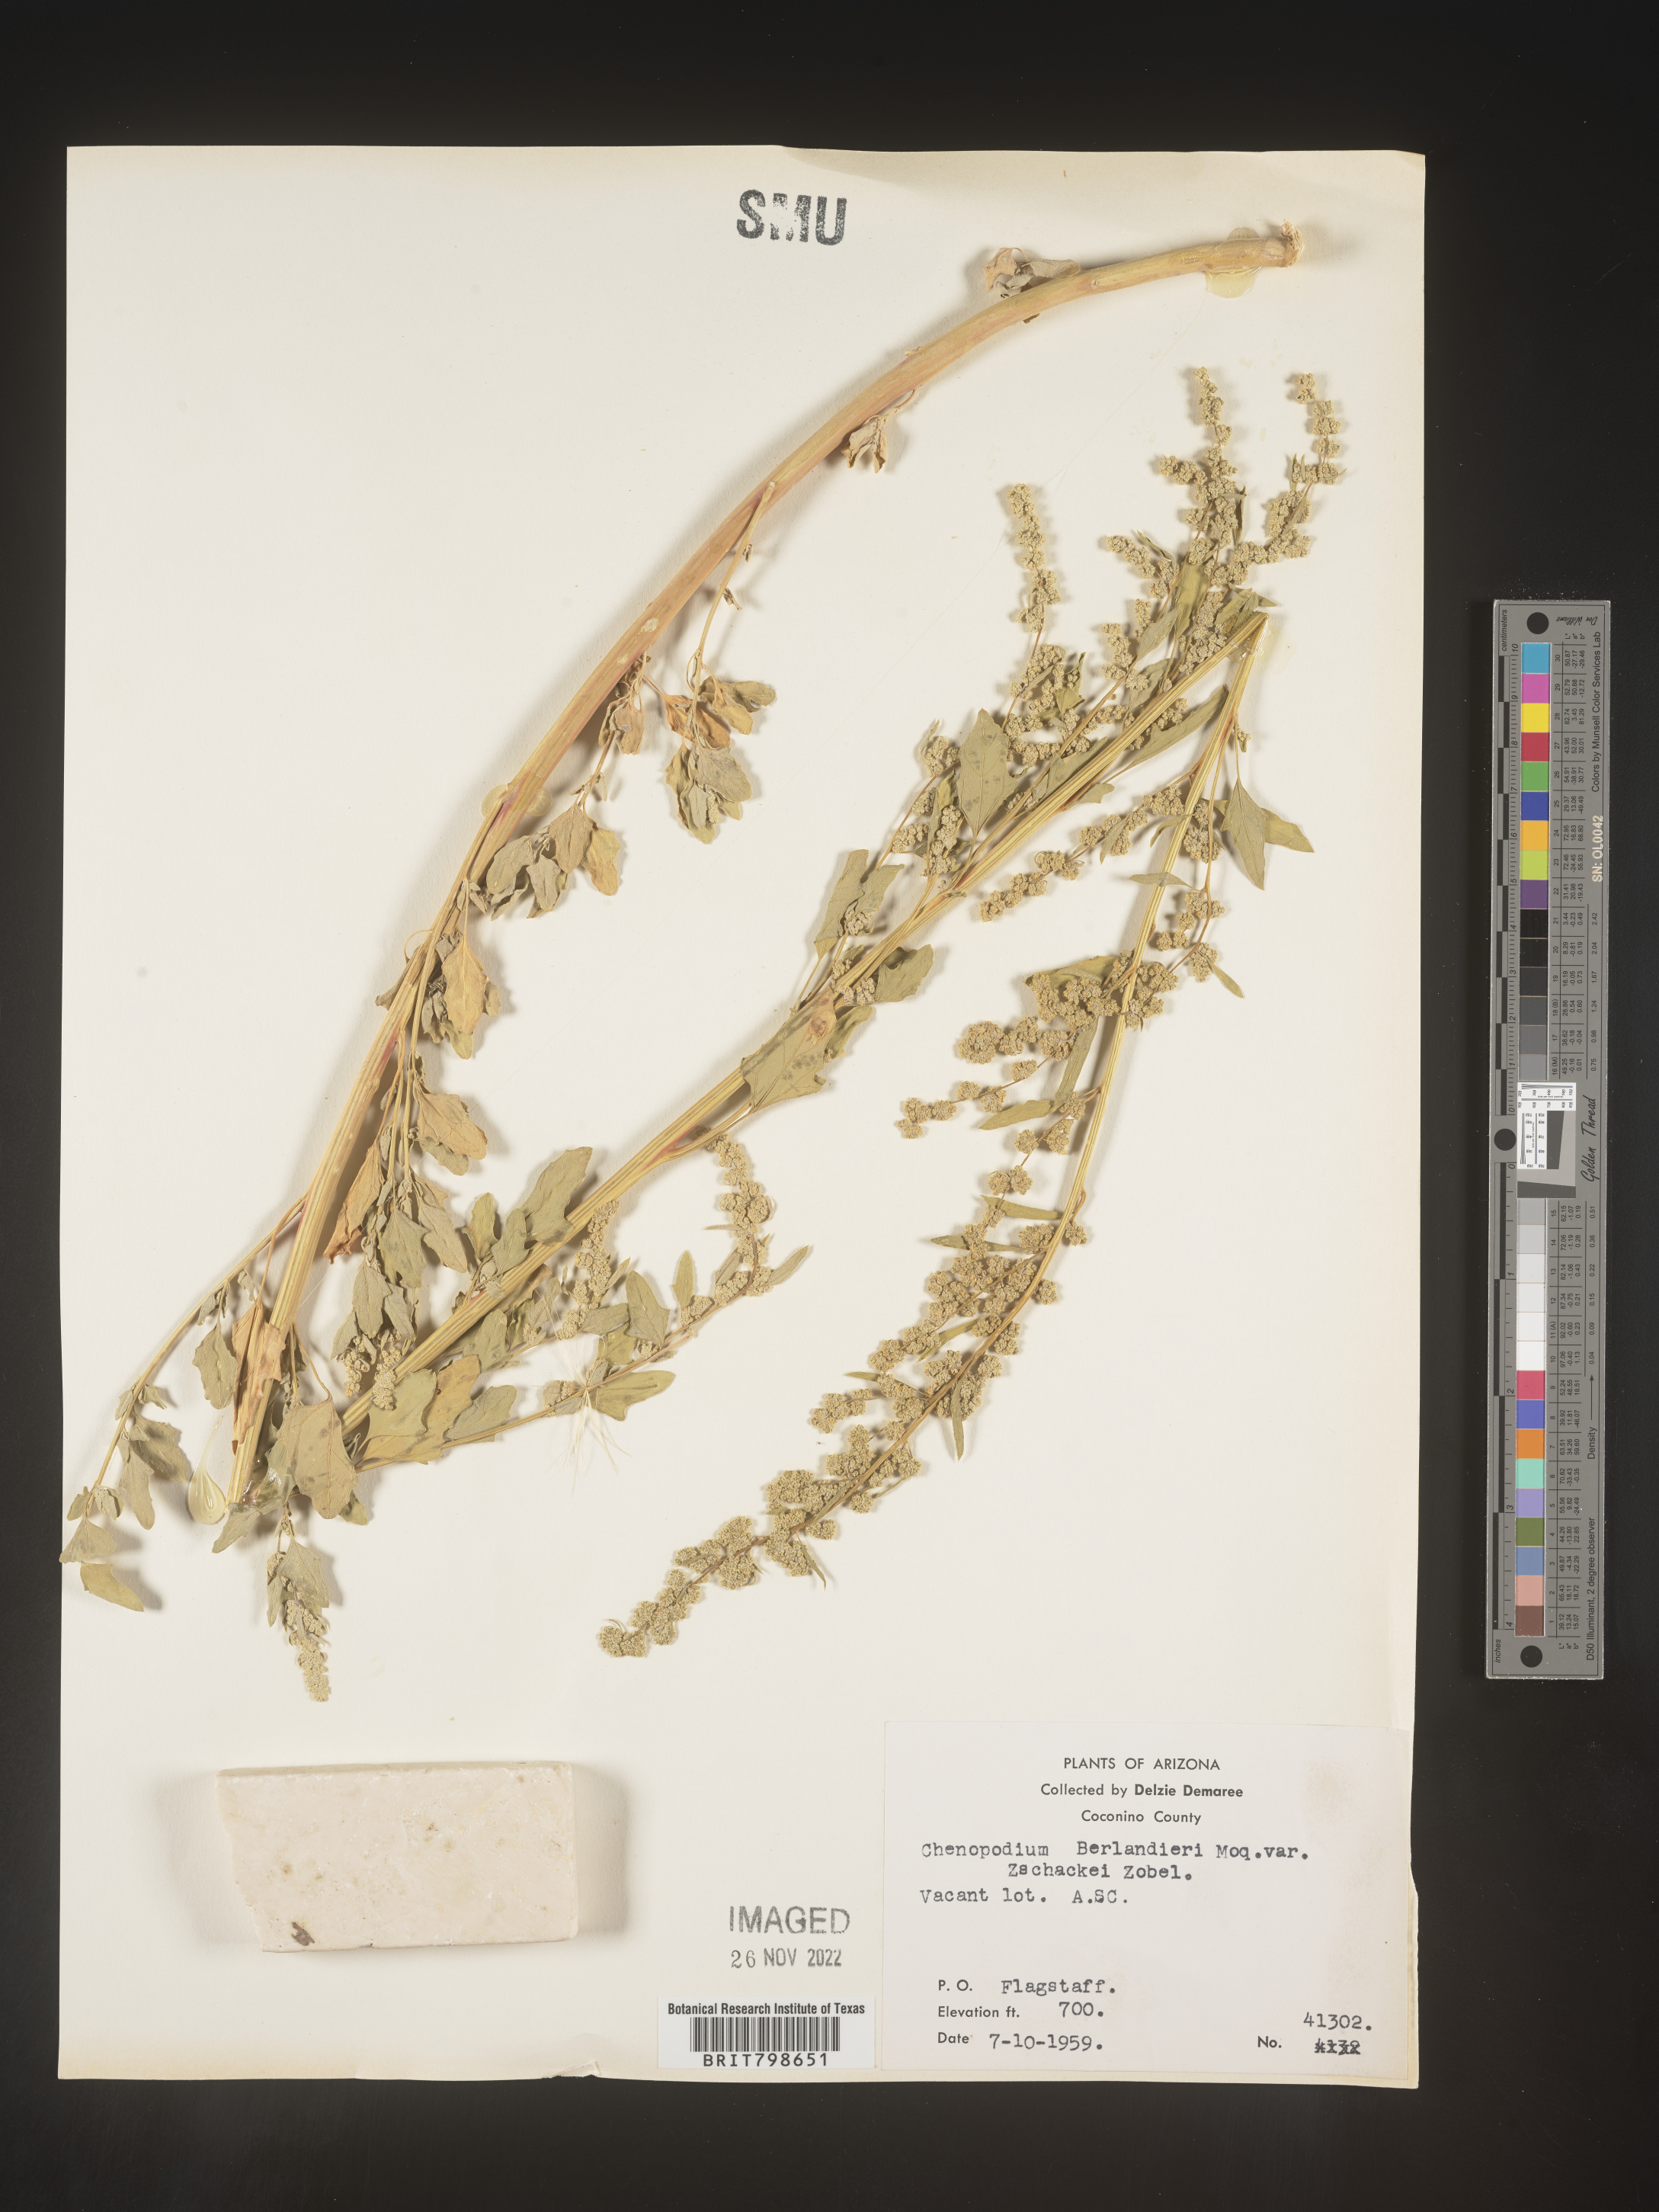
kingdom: Plantae
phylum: Tracheophyta
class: Magnoliopsida
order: Caryophyllales
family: Amaranthaceae
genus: Chenopodium
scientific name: Chenopodium berlandieri
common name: Pit-seed goosefoot
